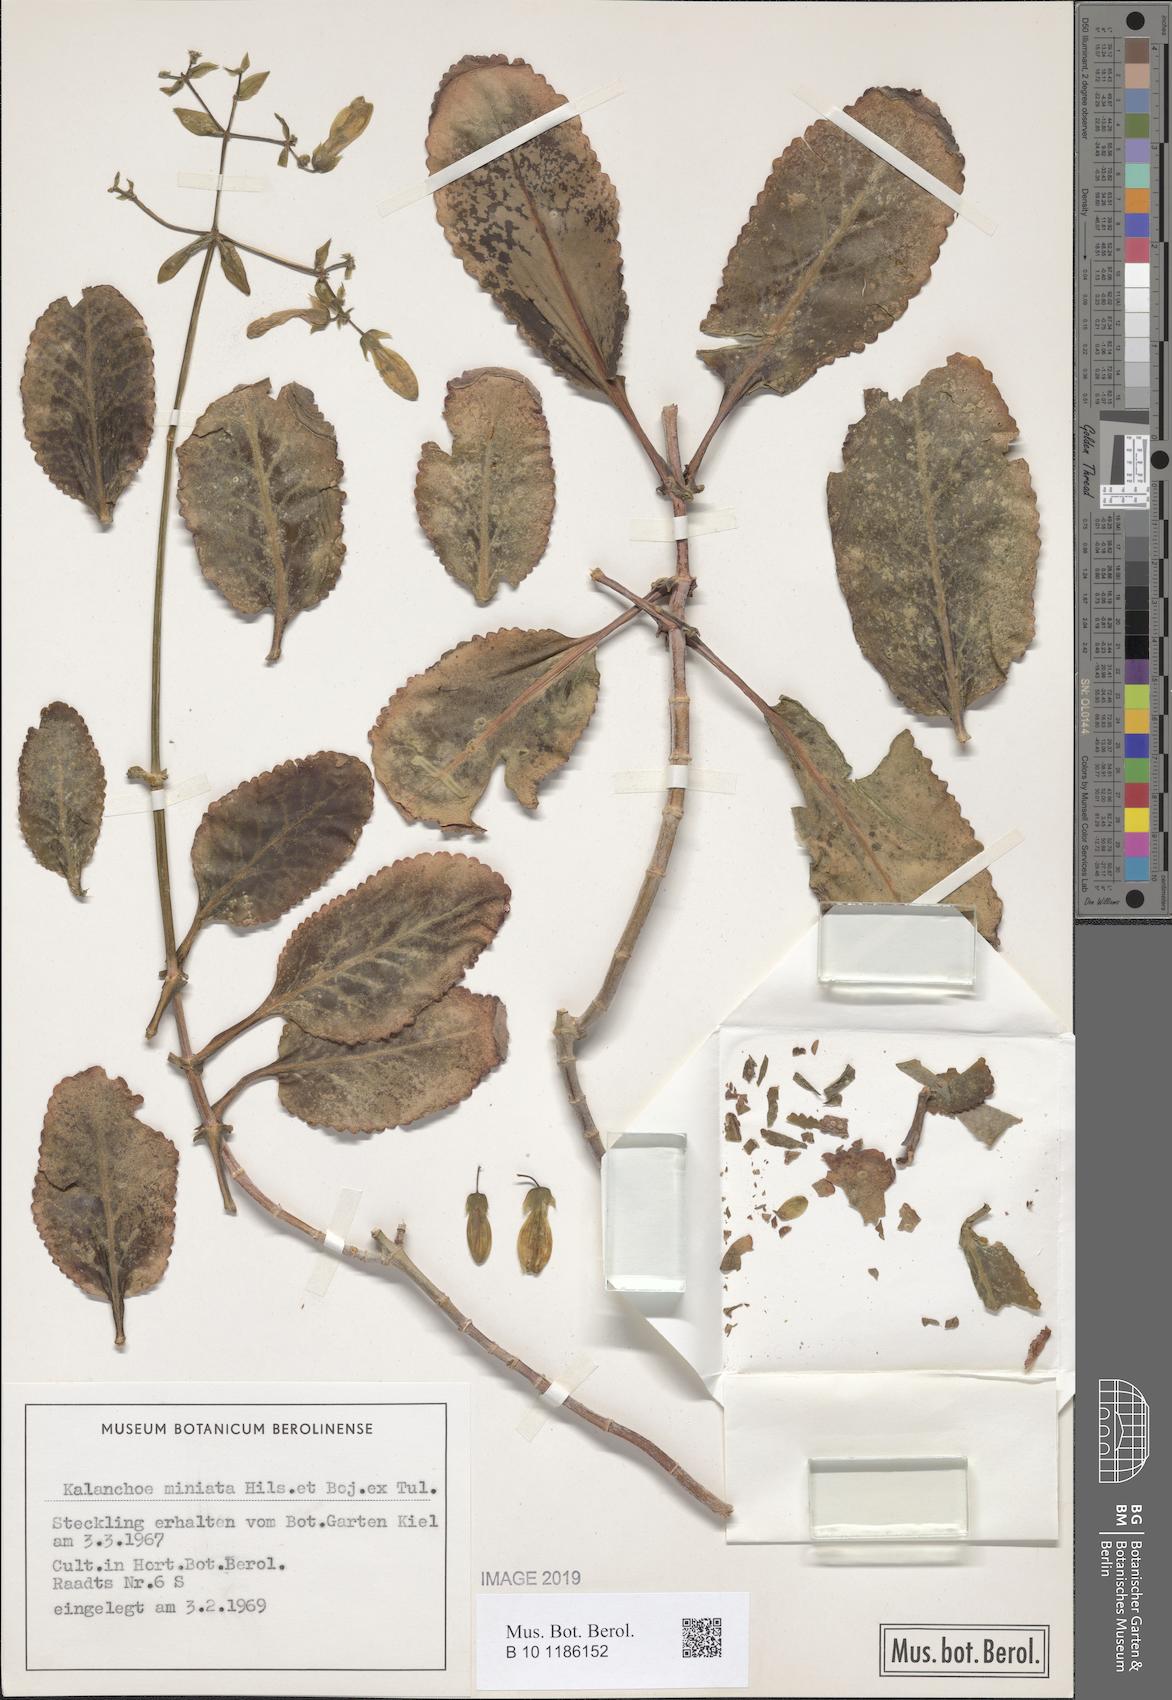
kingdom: Plantae
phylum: Tracheophyta
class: Magnoliopsida
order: Saxifragales
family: Crassulaceae
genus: Kalanchoe
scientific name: Kalanchoe miniata
